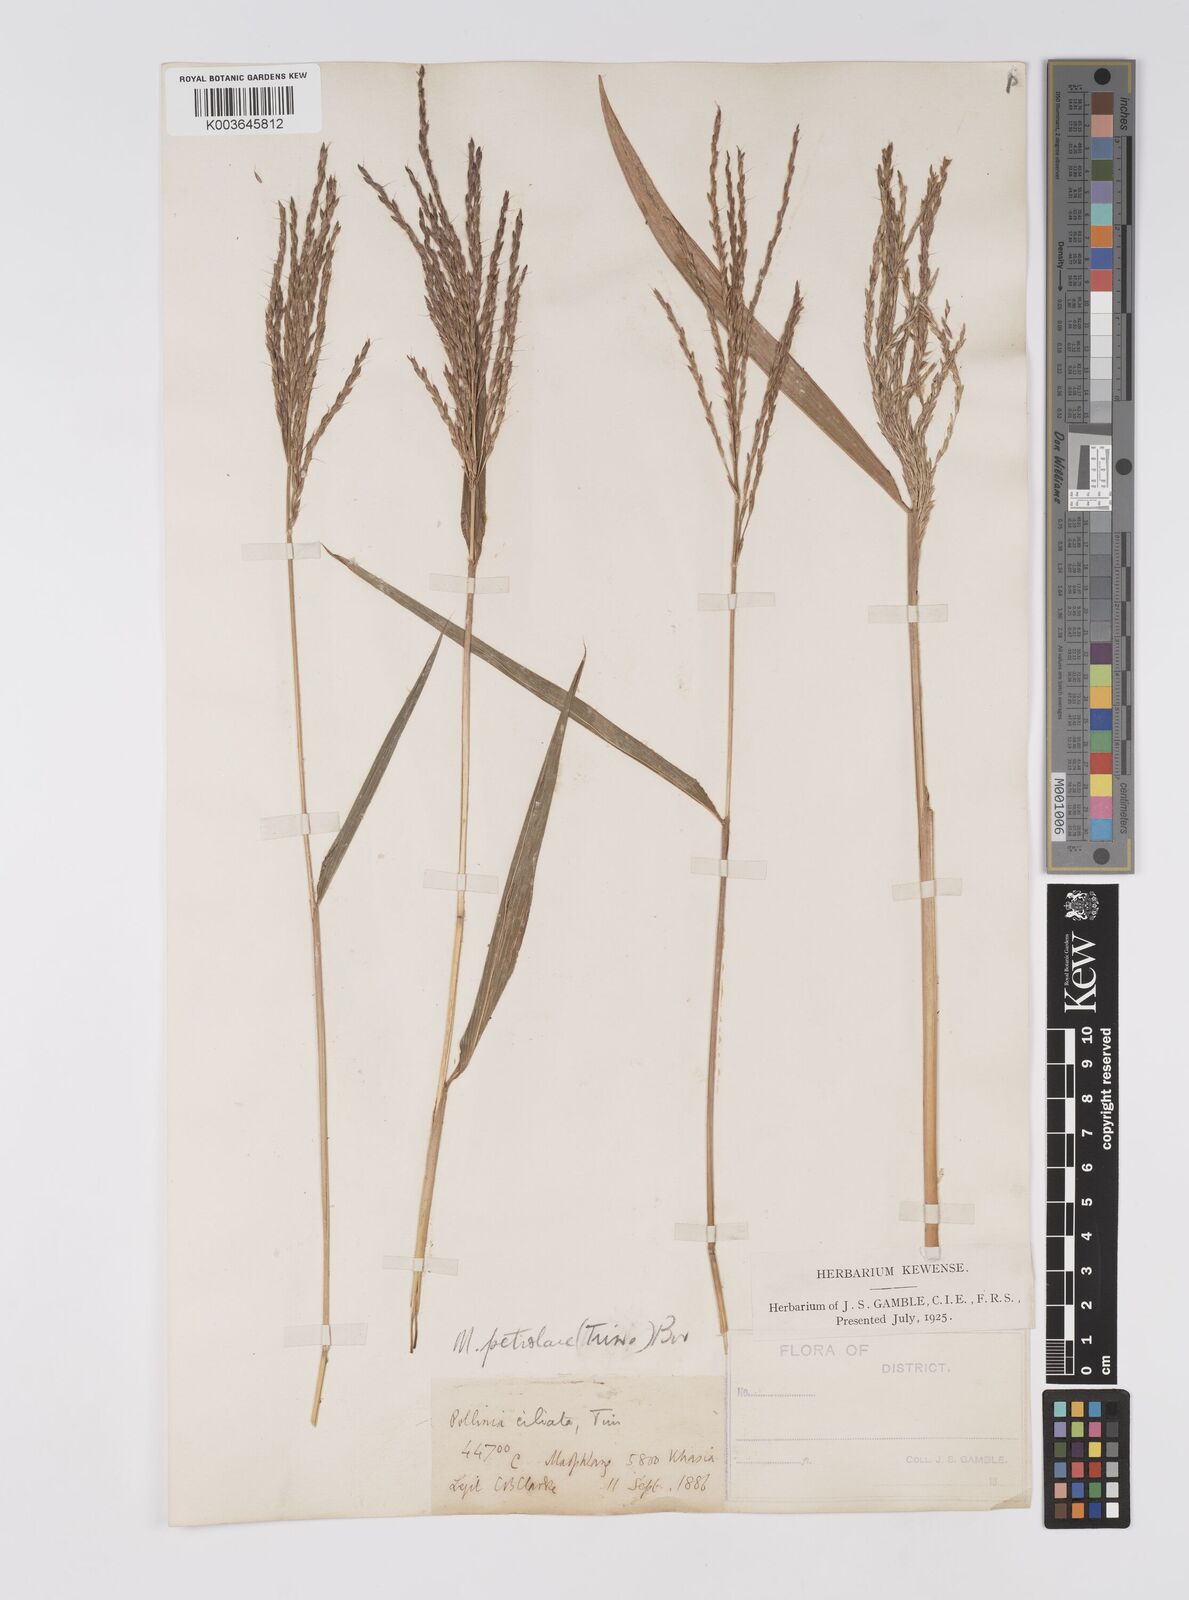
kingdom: Plantae
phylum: Tracheophyta
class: Liliopsida
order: Poales
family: Poaceae
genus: Microstegium
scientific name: Microstegium petiolare
